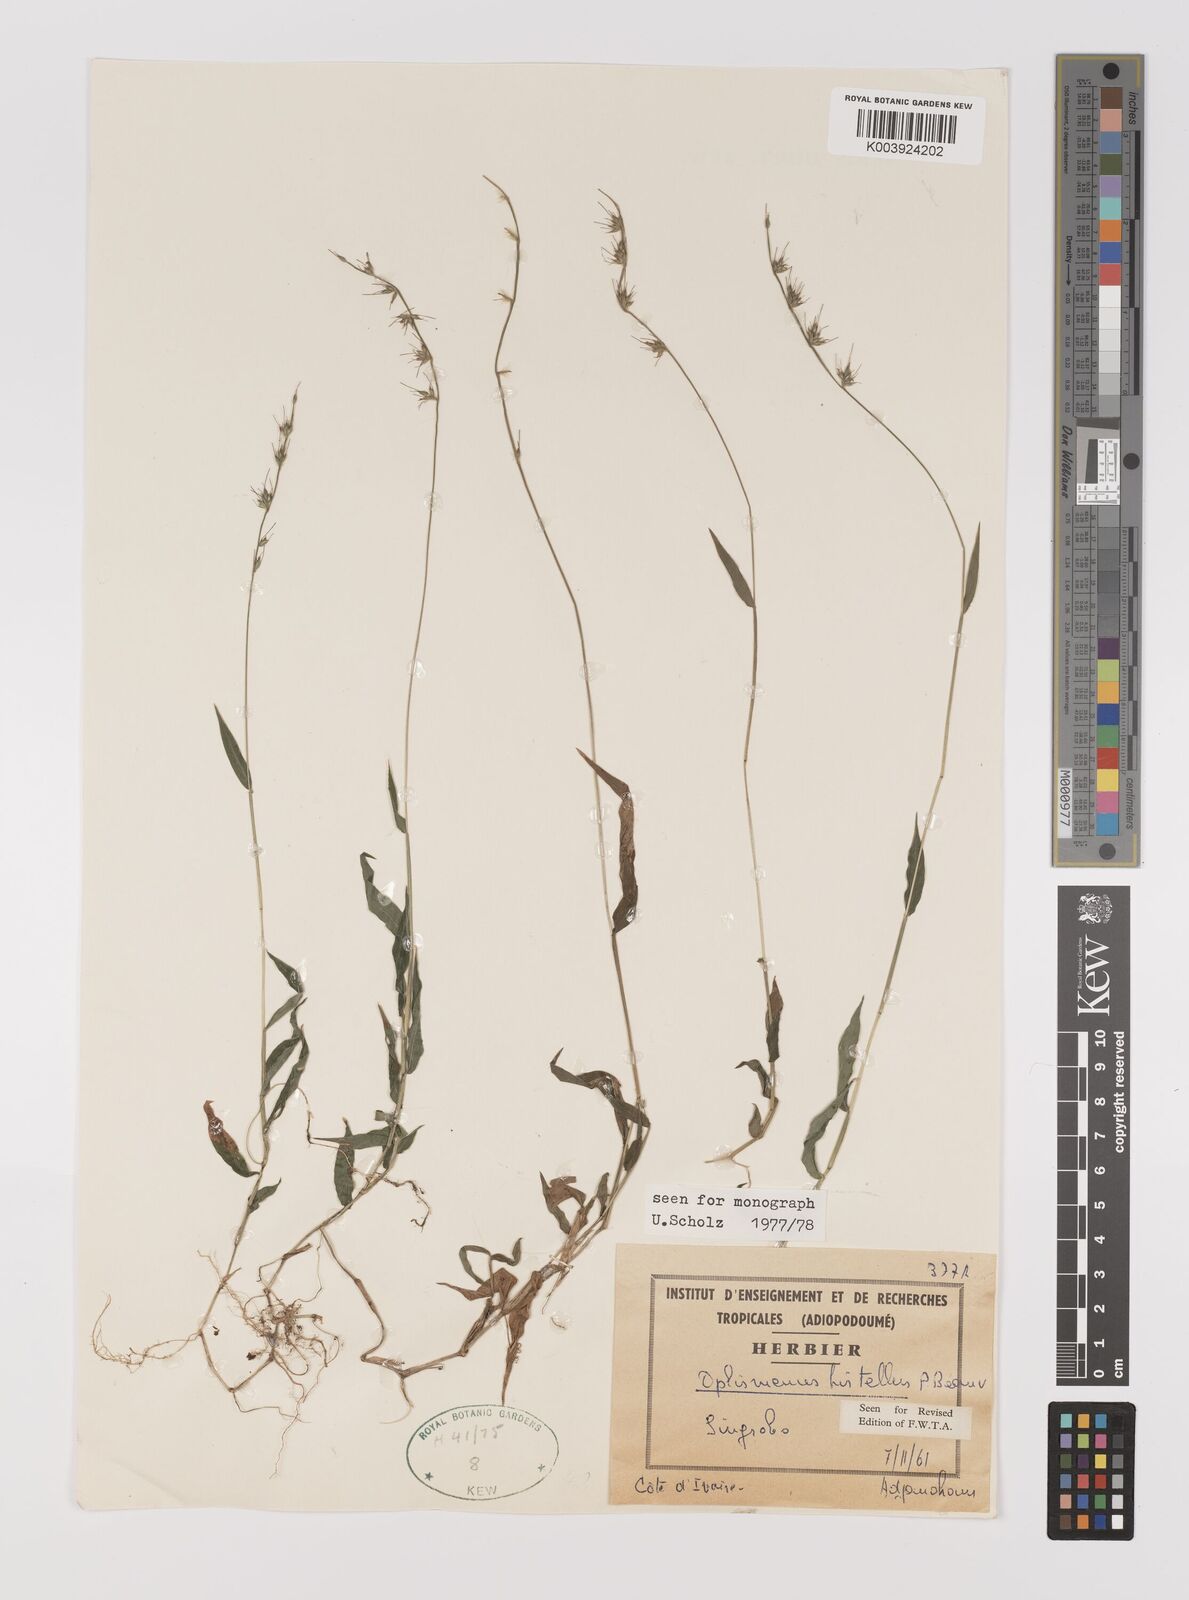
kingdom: Plantae
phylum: Tracheophyta
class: Liliopsida
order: Poales
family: Poaceae
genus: Oplismenus
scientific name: Oplismenus hirtellus
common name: Basketgrass
